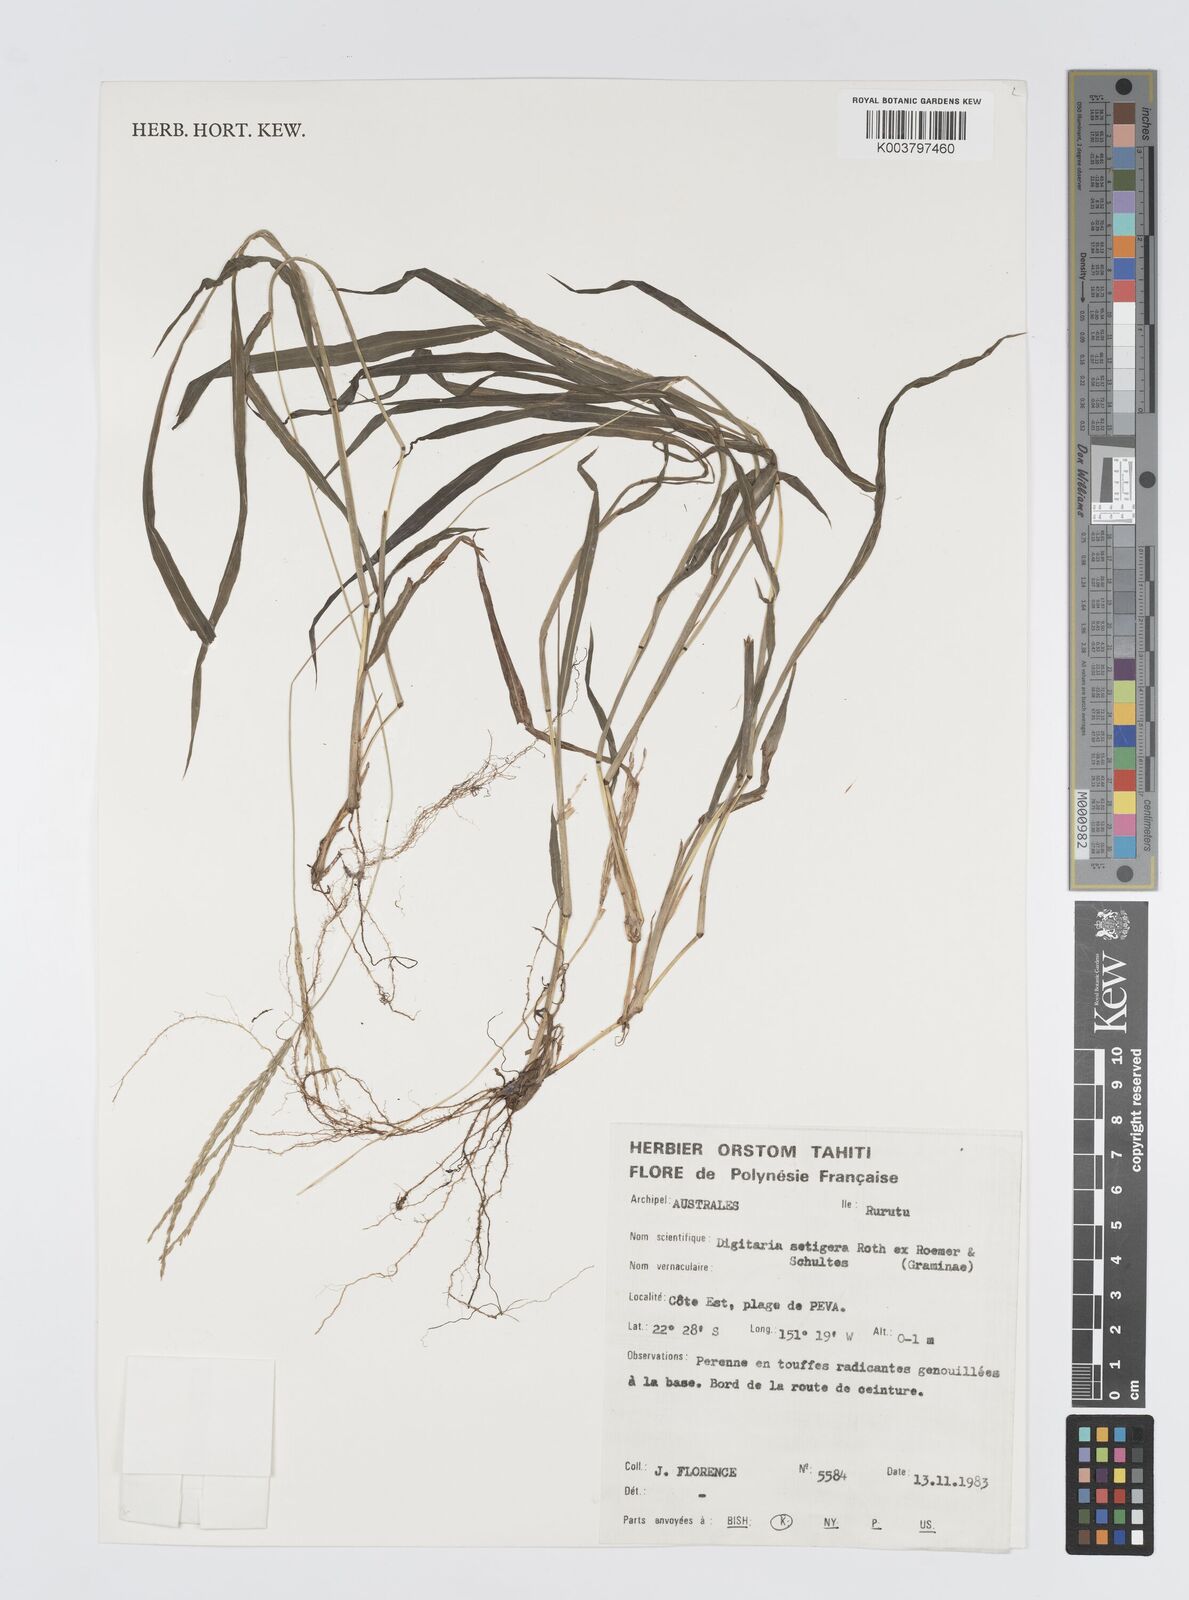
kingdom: Plantae
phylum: Tracheophyta
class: Liliopsida
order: Poales
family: Poaceae
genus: Digitaria
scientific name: Digitaria setigera
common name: East indian crabgrass
